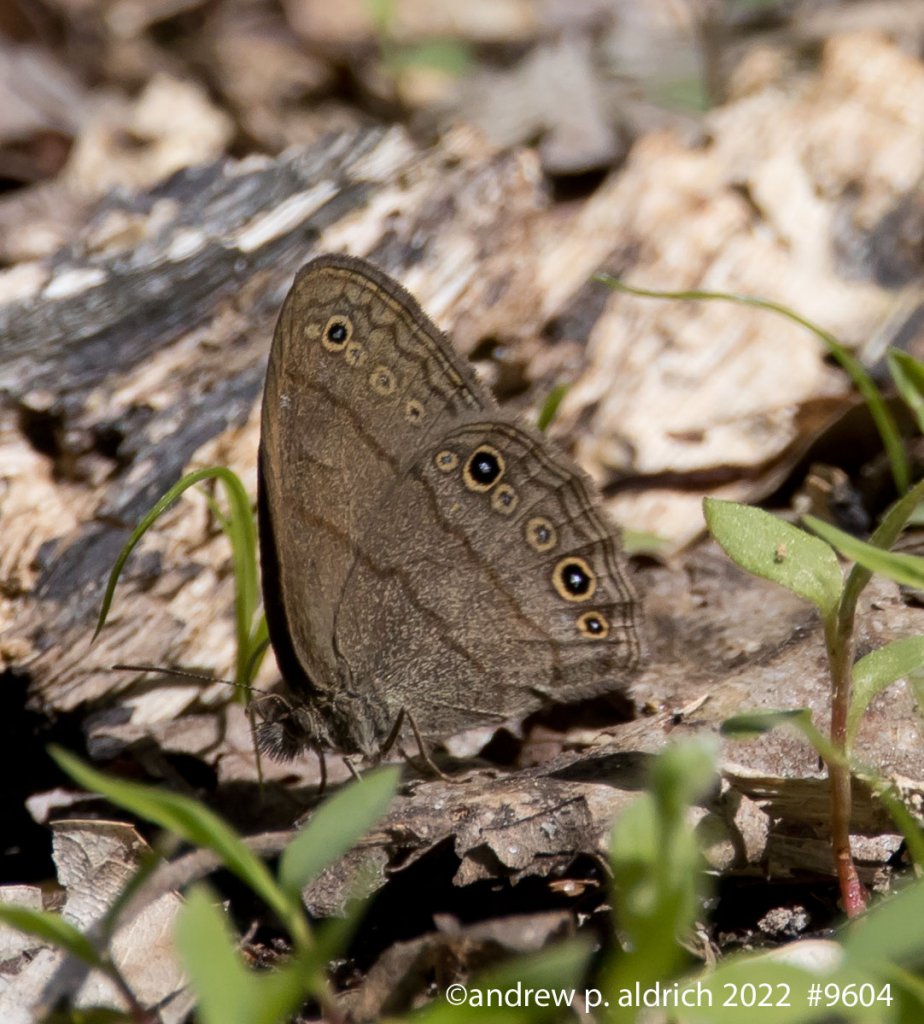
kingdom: Animalia
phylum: Arthropoda
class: Insecta
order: Lepidoptera
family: Nymphalidae
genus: Hermeuptychia
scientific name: Hermeuptychia hermes
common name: Carolina Satyr
